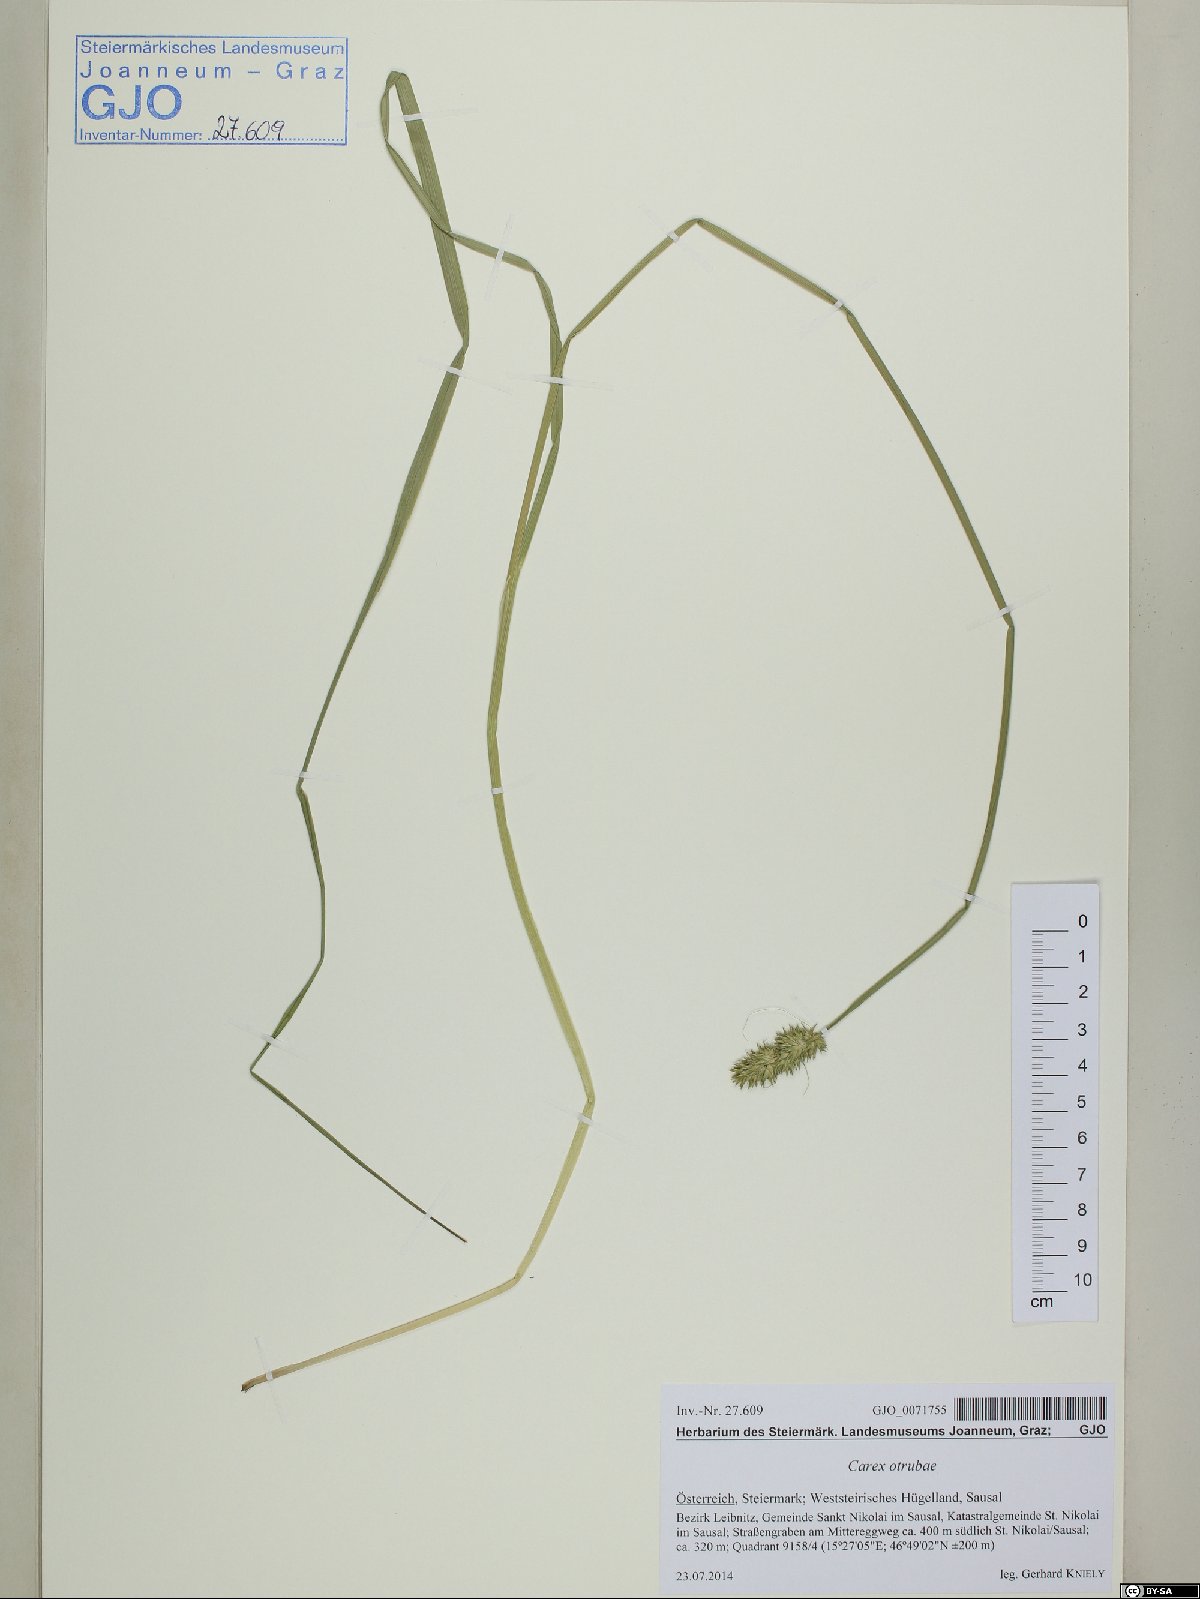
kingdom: Plantae
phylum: Tracheophyta
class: Liliopsida
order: Poales
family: Cyperaceae
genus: Carex
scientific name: Carex otrubae
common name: False fox-sedge
